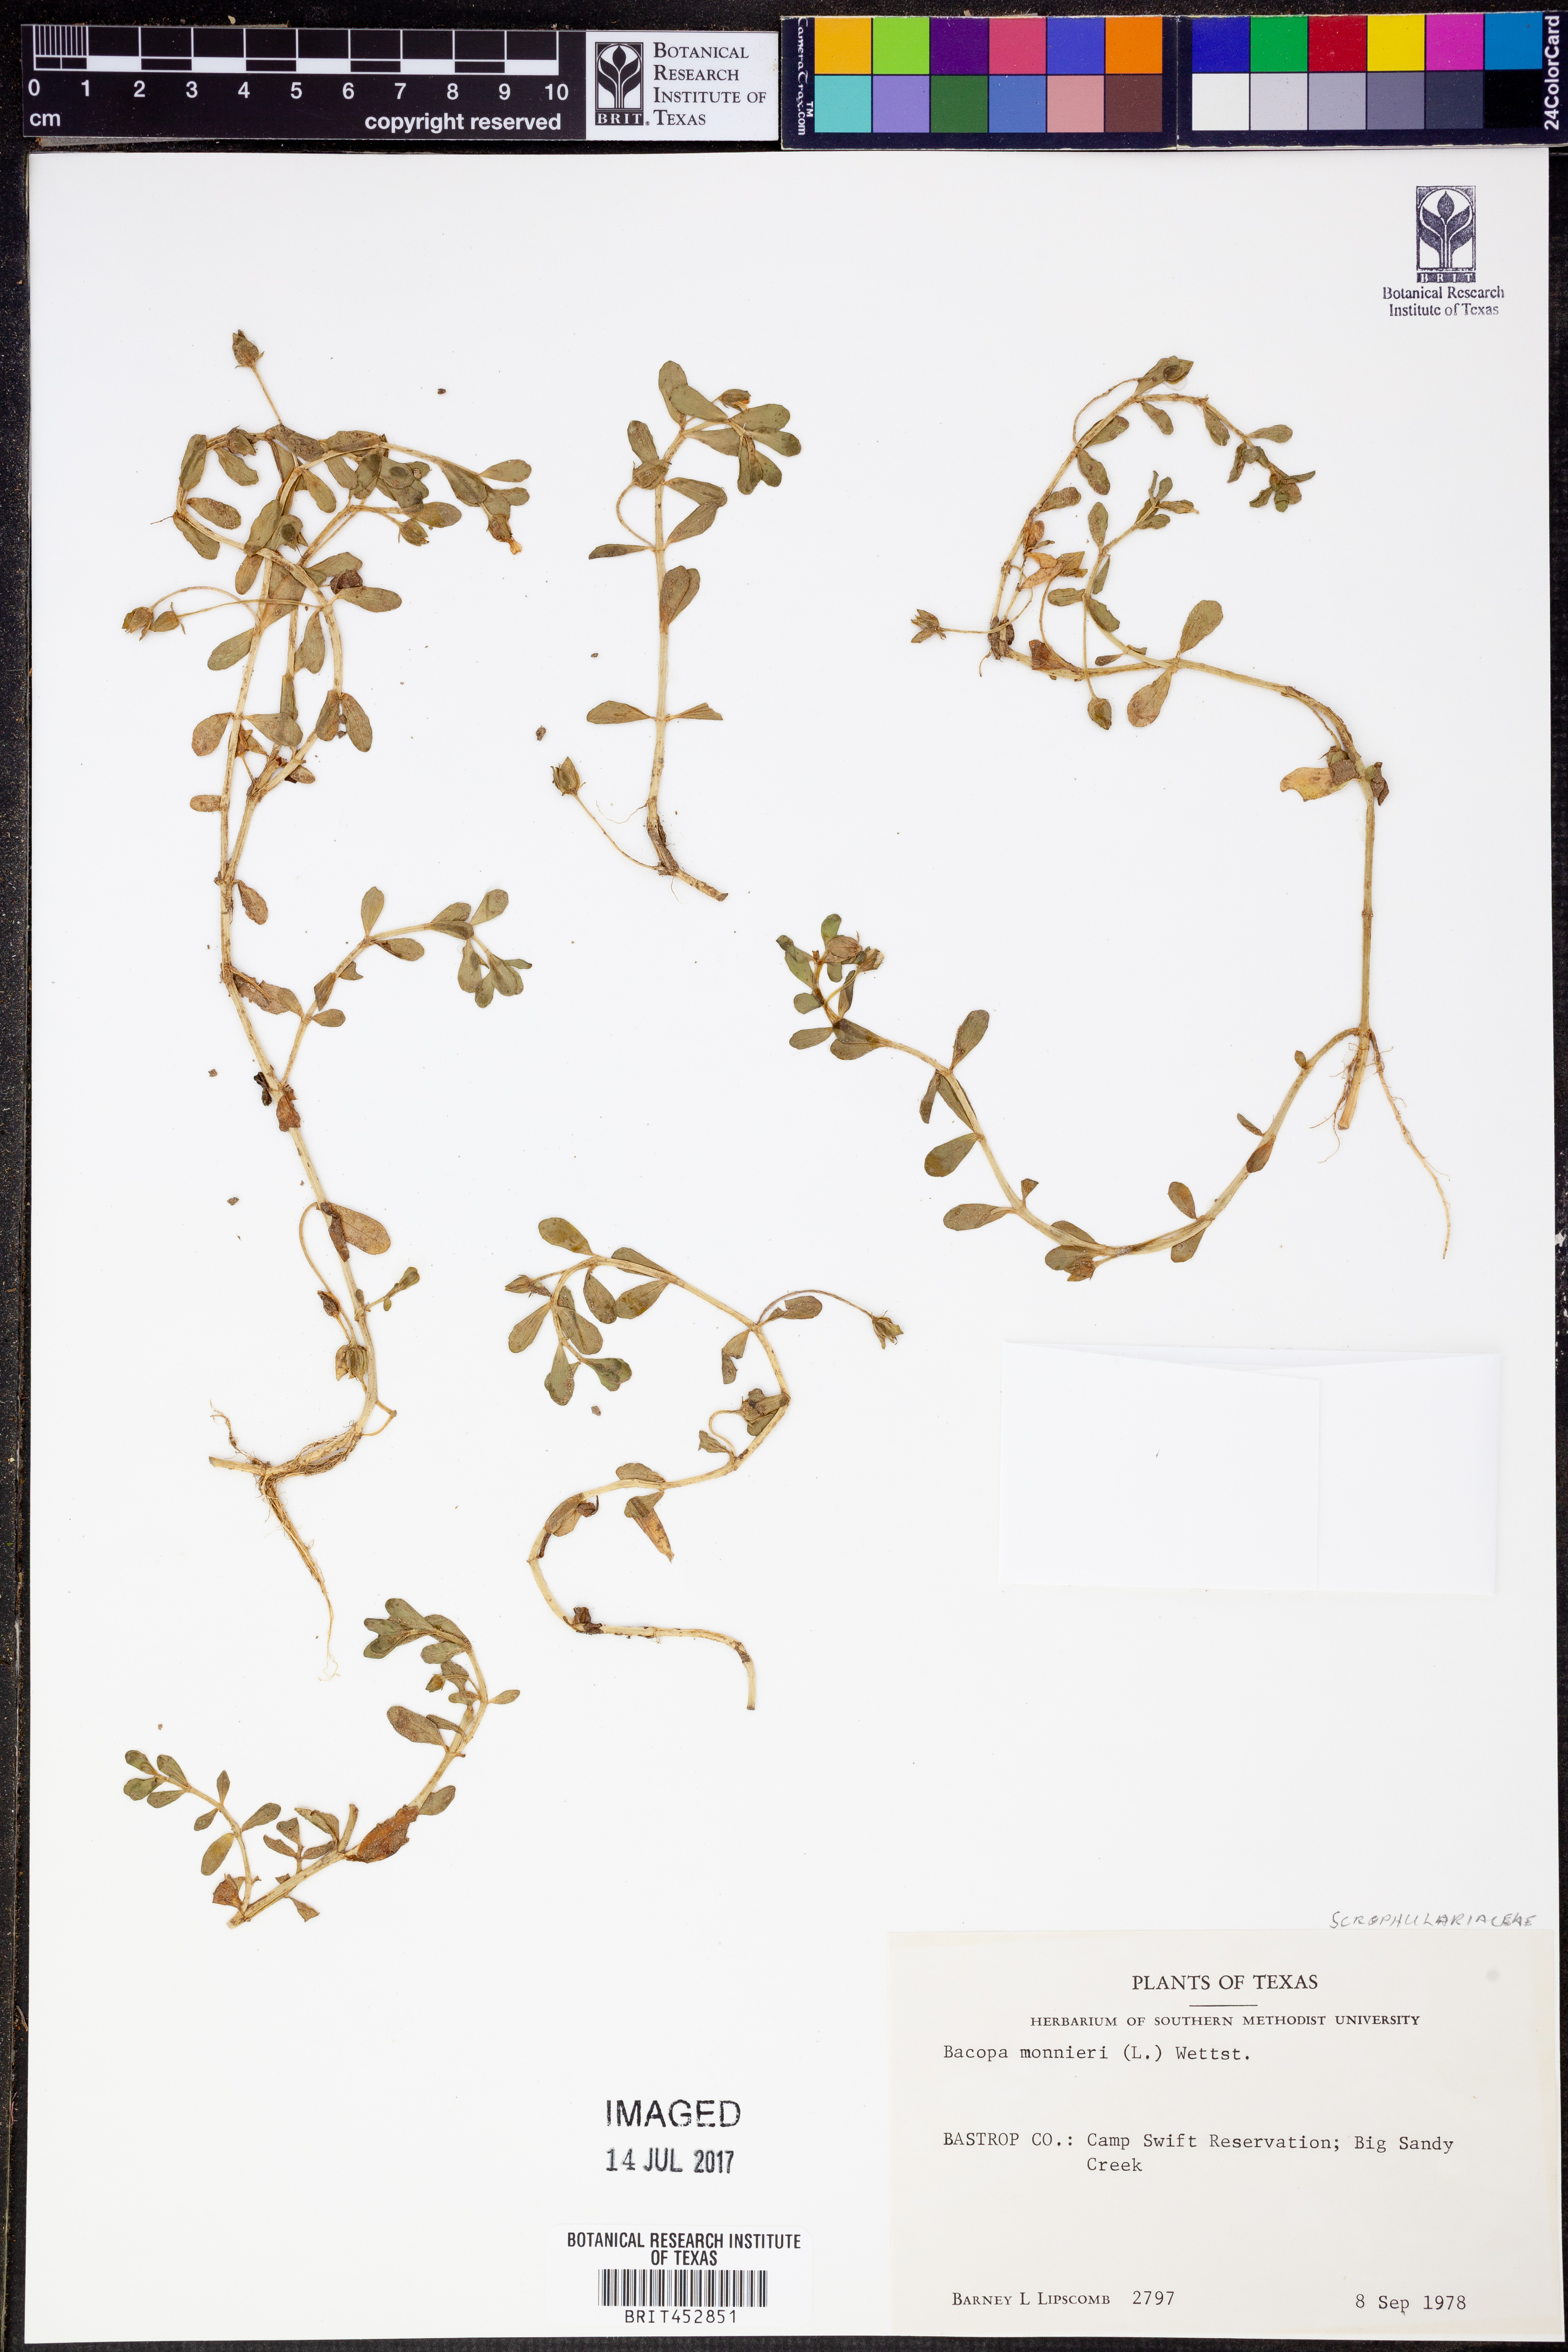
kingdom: Plantae
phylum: Tracheophyta
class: Magnoliopsida
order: Lamiales
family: Plantaginaceae
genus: Bacopa
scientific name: Bacopa monnieri
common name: Indian-pennywort
